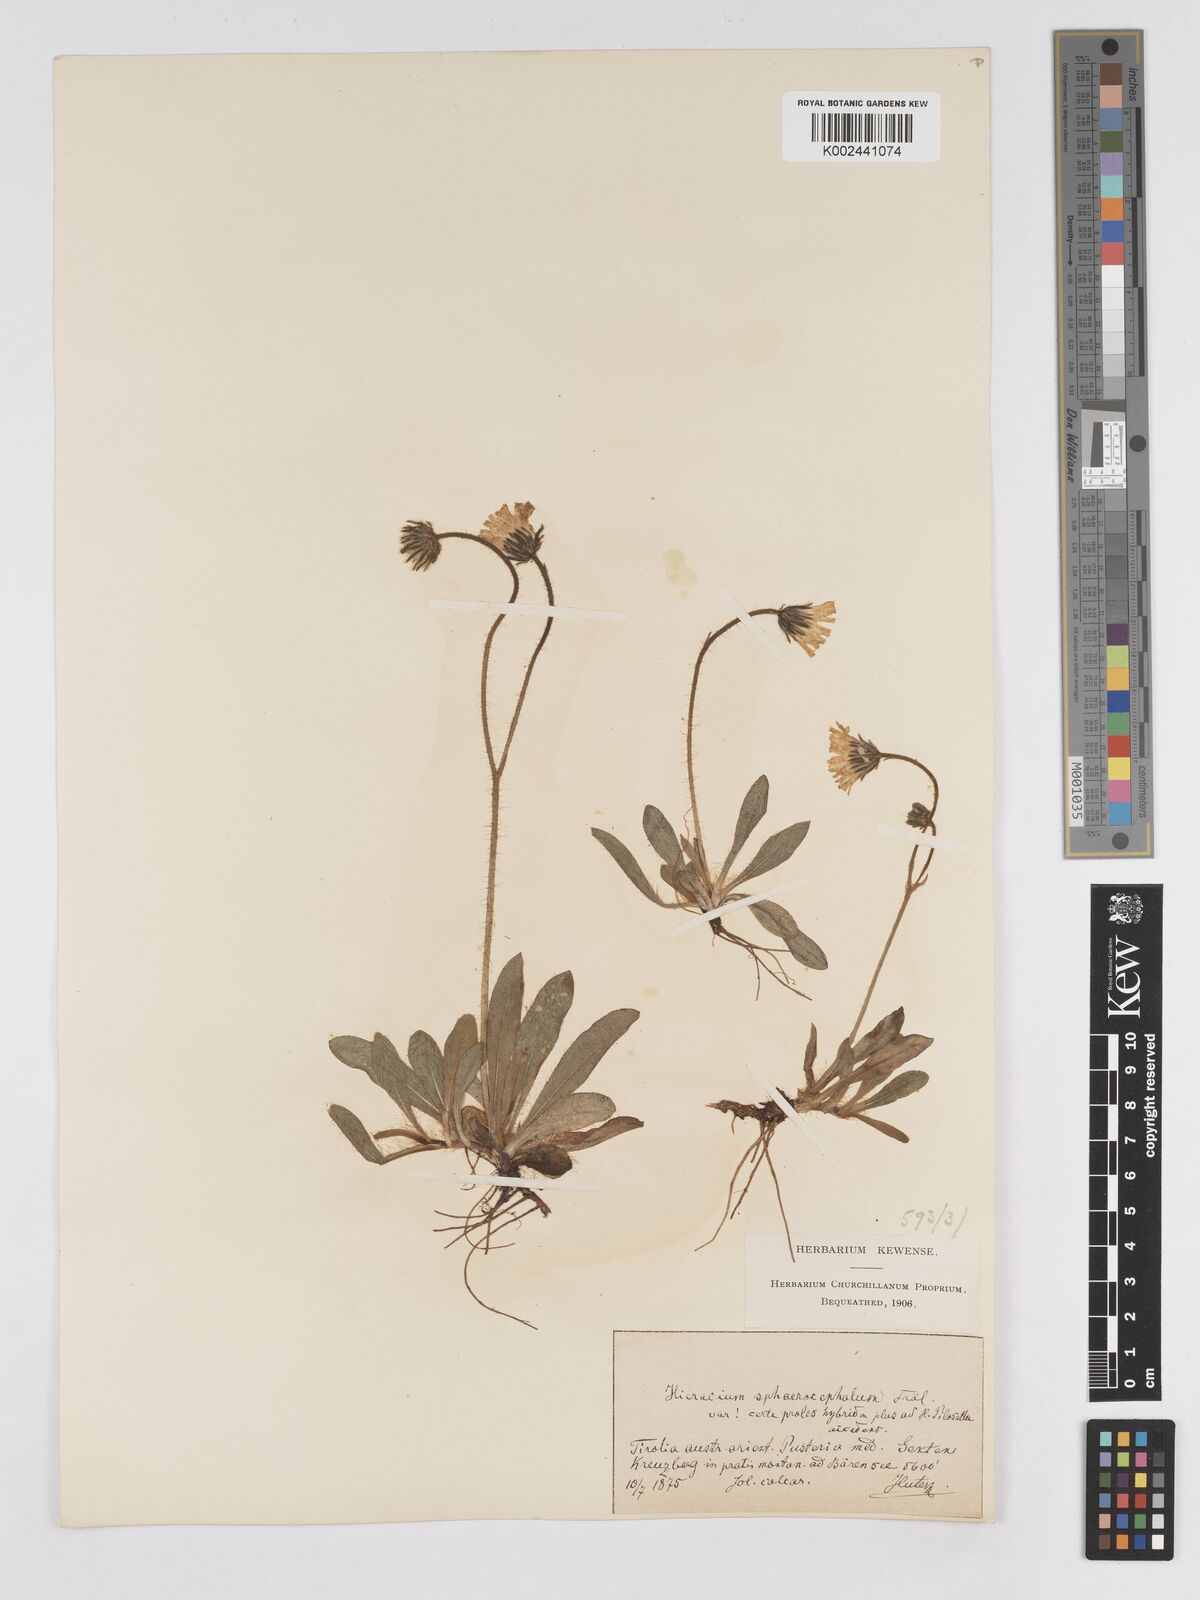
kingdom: Plantae
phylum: Tracheophyta
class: Magnoliopsida
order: Asterales
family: Asteraceae
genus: Pilosella
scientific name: Pilosella sphaerocephala
